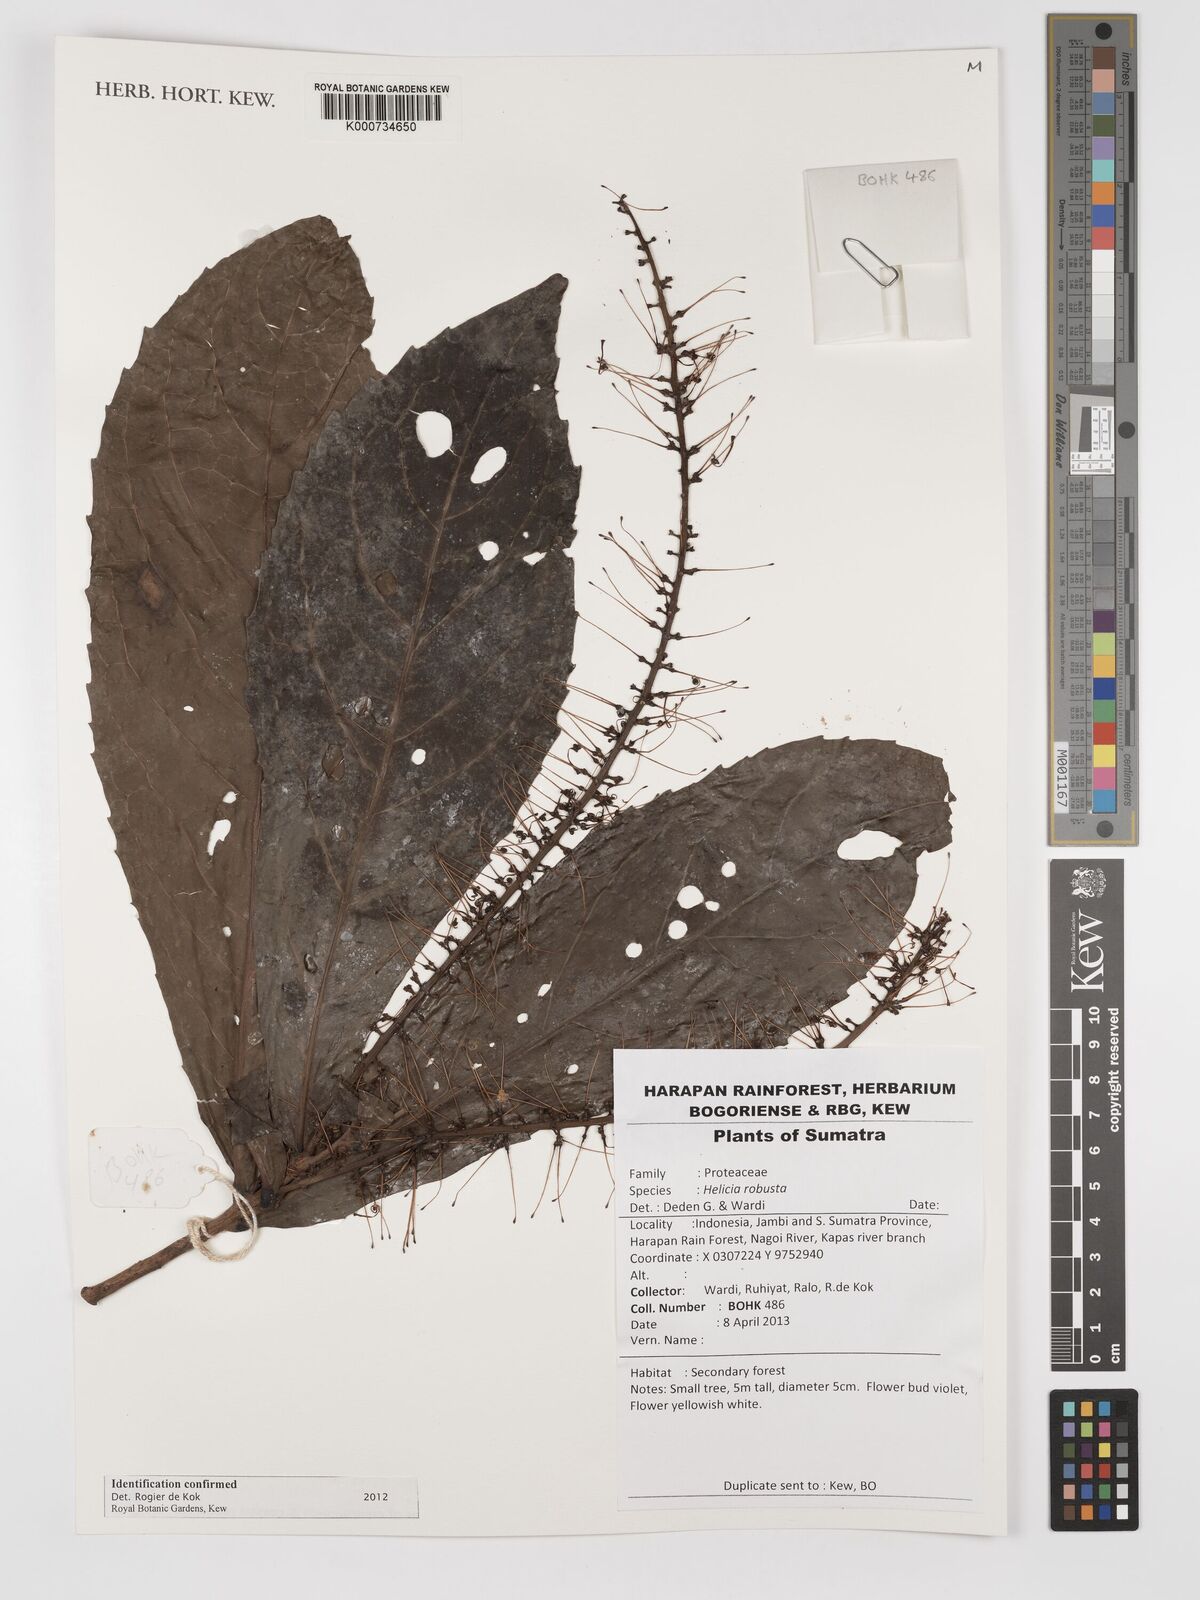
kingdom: Plantae
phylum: Tracheophyta
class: Magnoliopsida
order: Proteales
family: Proteaceae
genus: Helicia
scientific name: Helicia robusta
